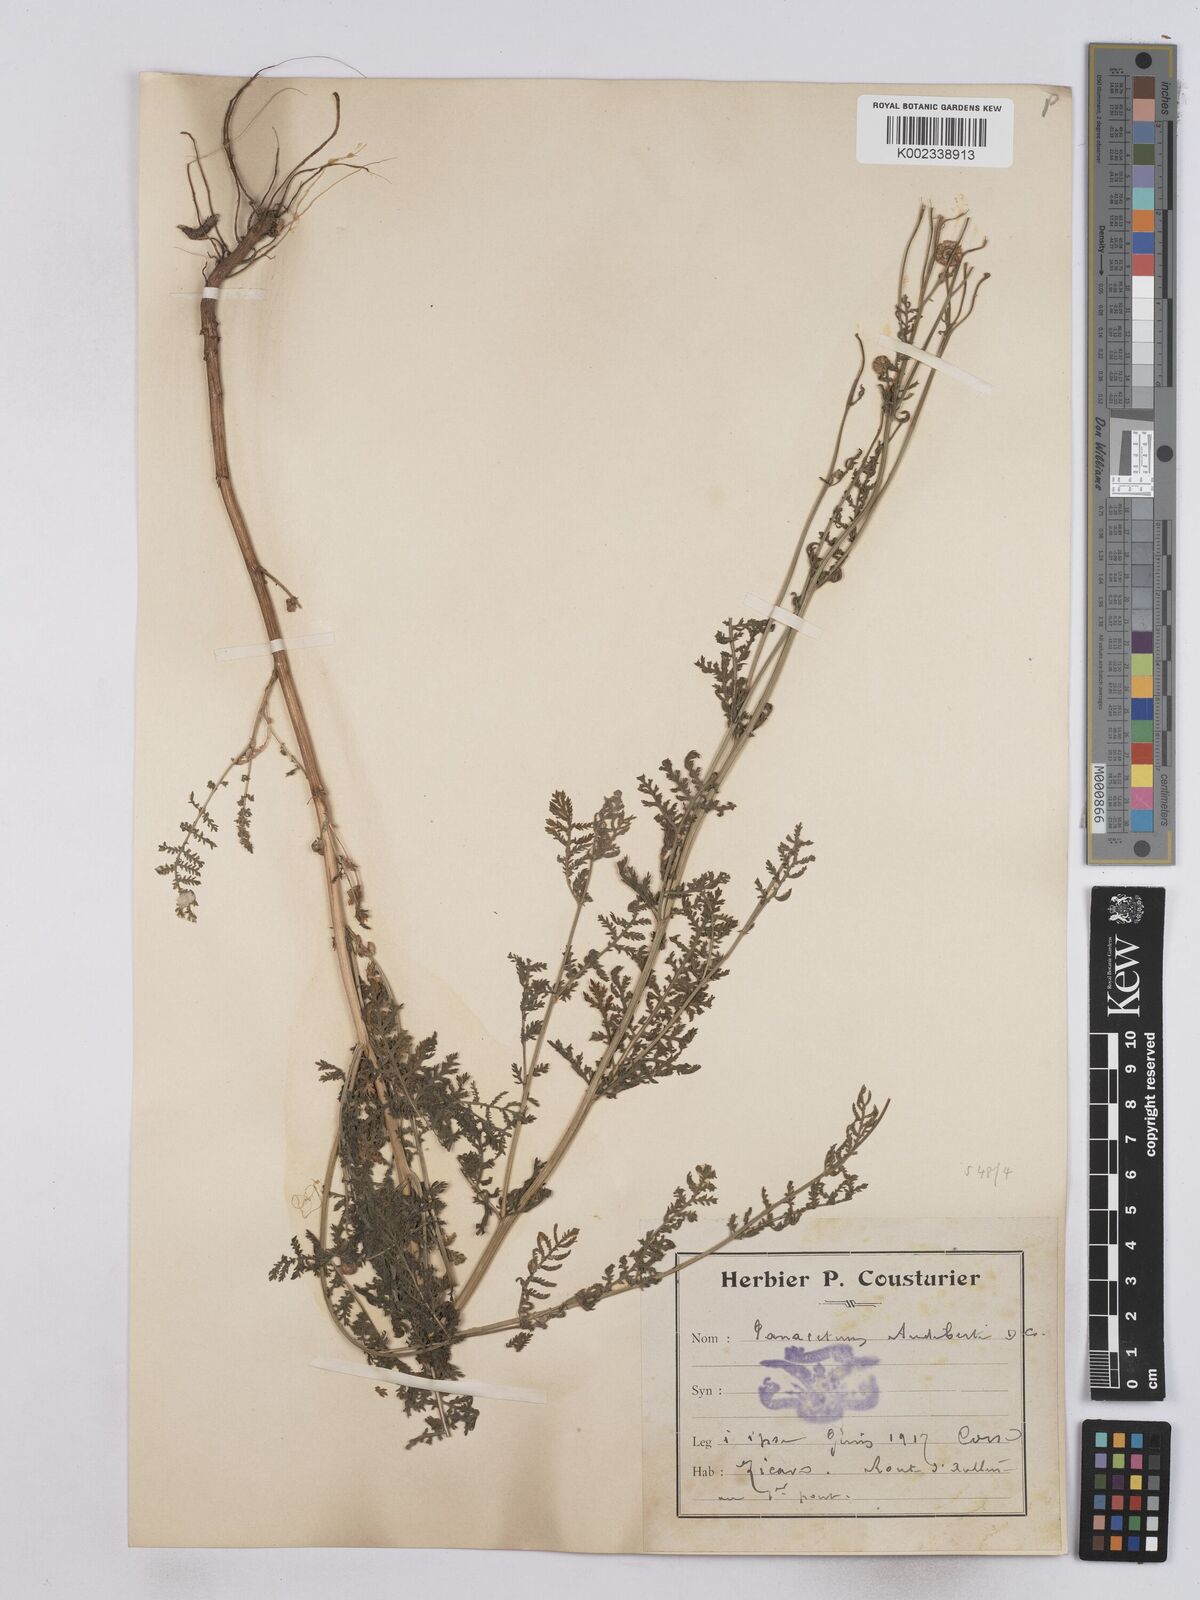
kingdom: Plantae
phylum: Tracheophyta
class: Magnoliopsida
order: Asterales
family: Asteraceae
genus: Tanacetum
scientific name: Tanacetum audibertii
